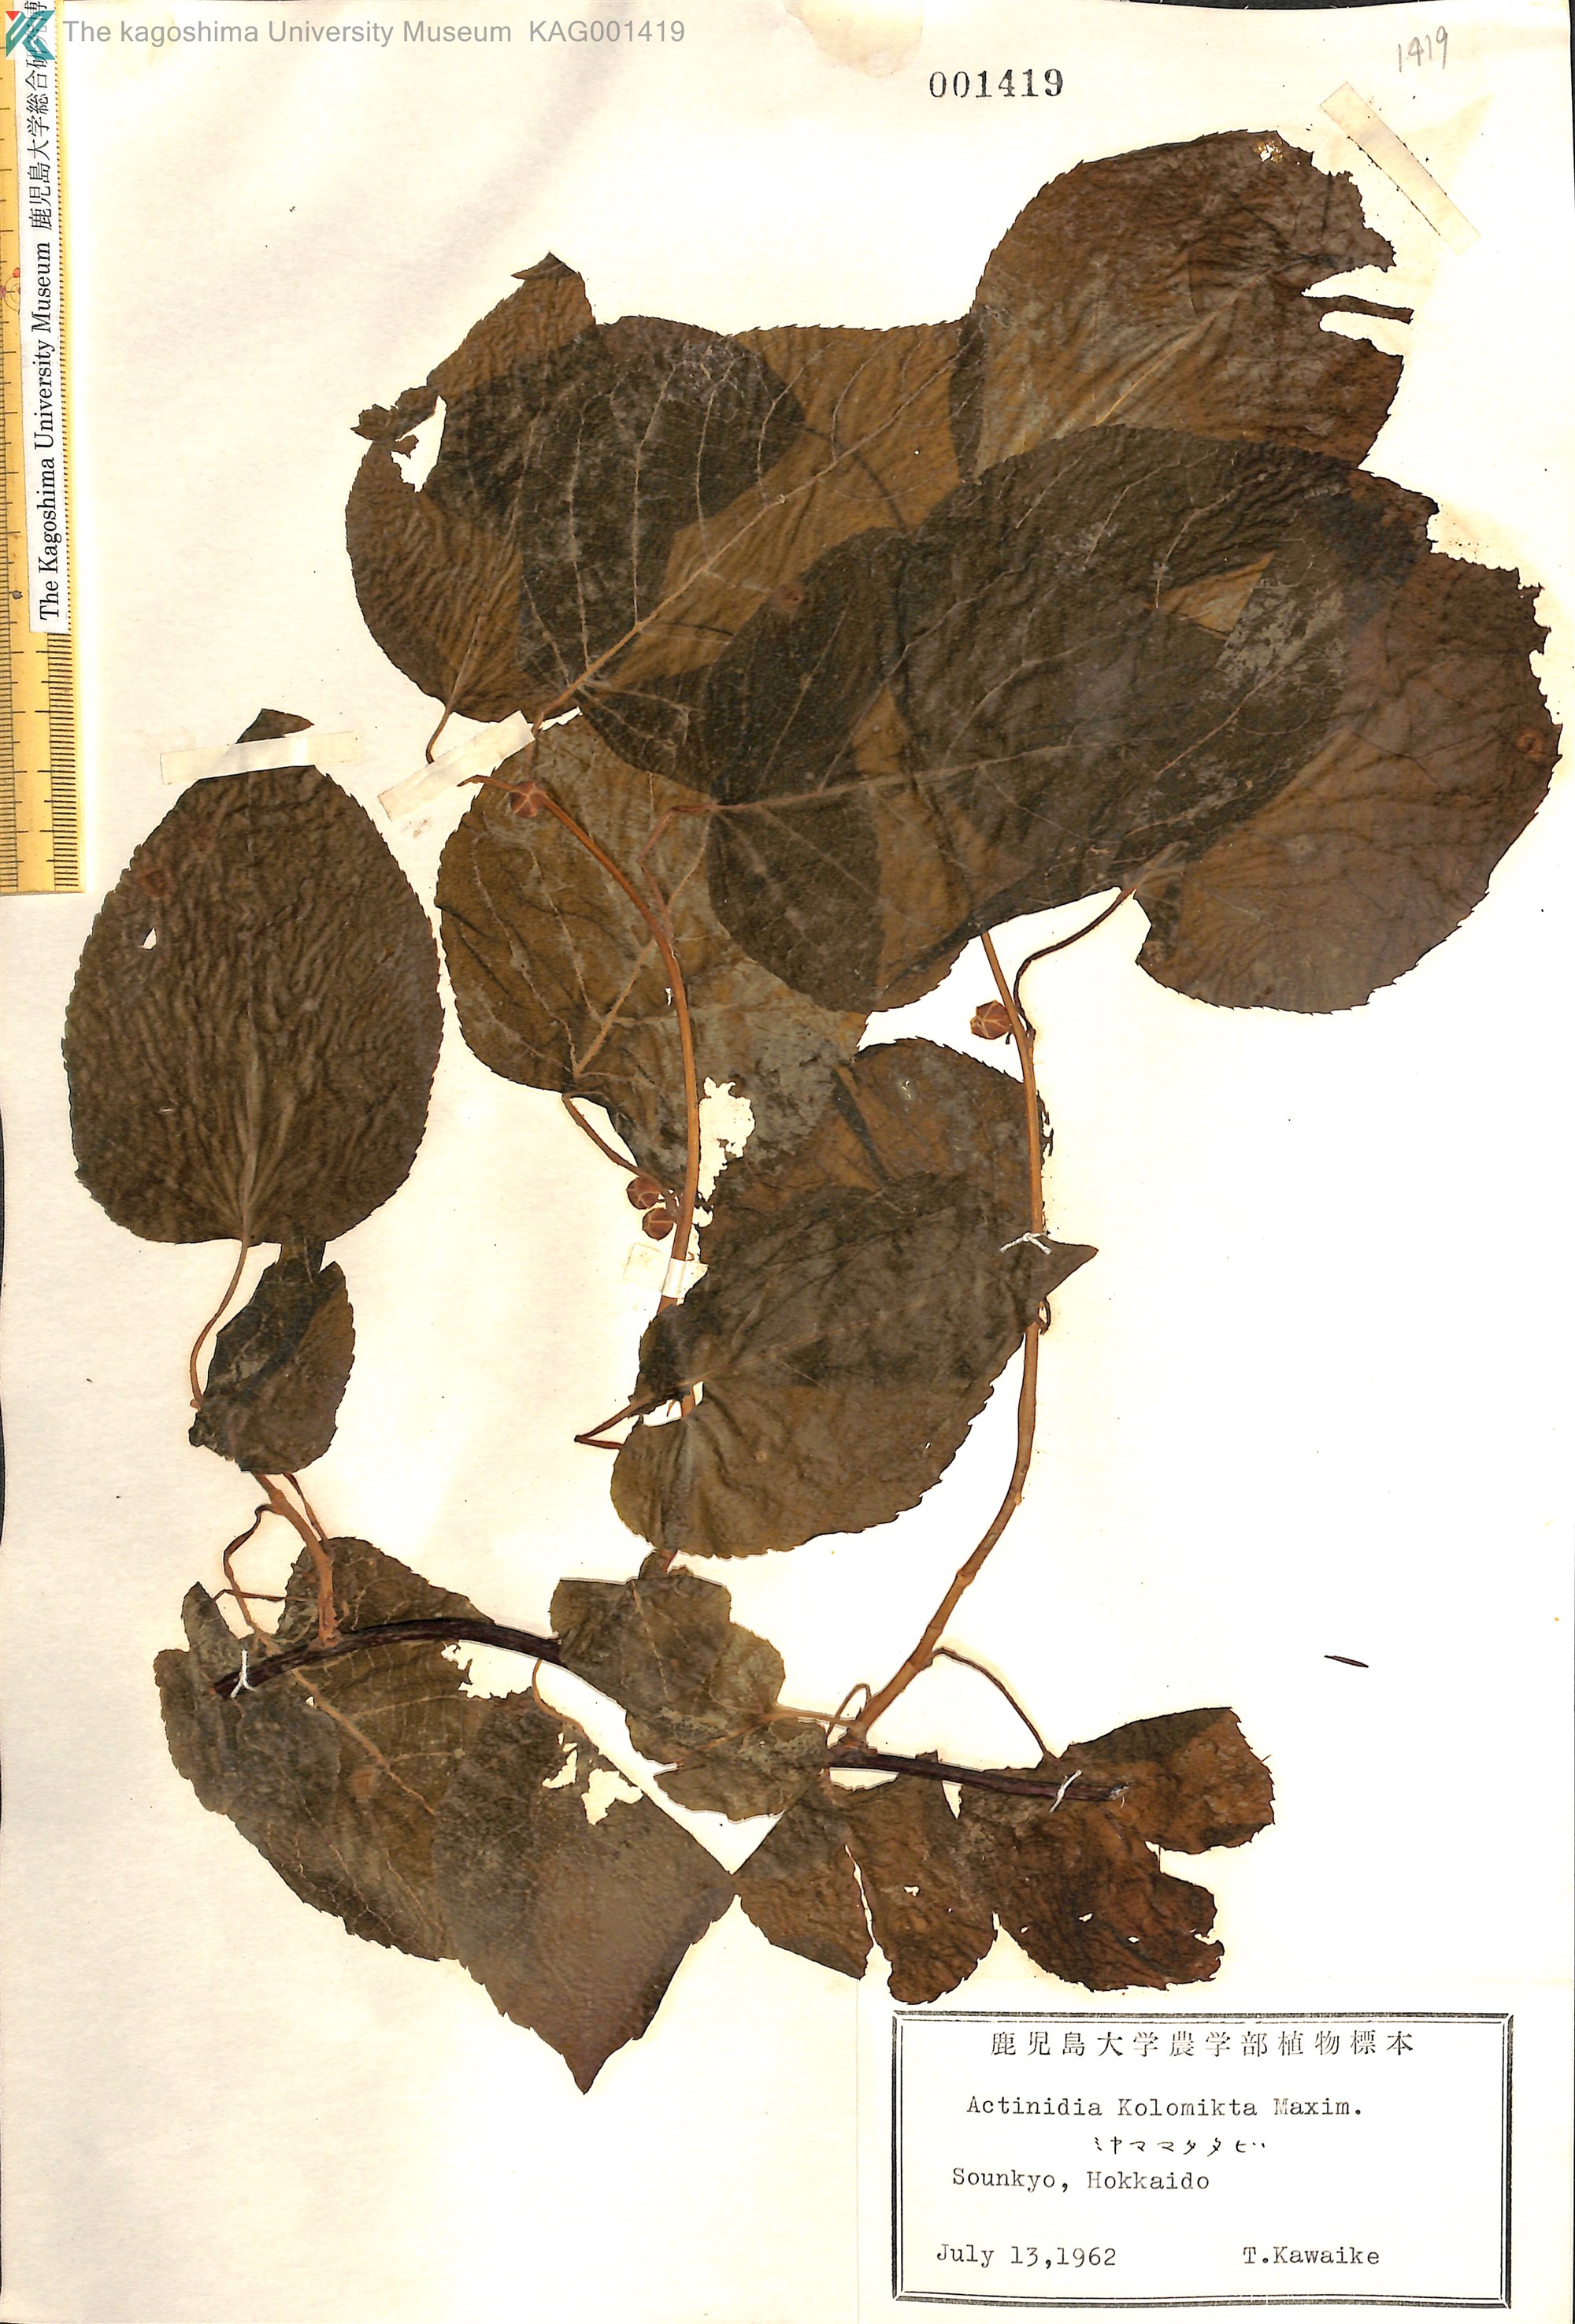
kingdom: Plantae
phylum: Tracheophyta
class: Magnoliopsida
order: Ericales
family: Actinidiaceae
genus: Actinidia
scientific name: Actinidia kolomikta
